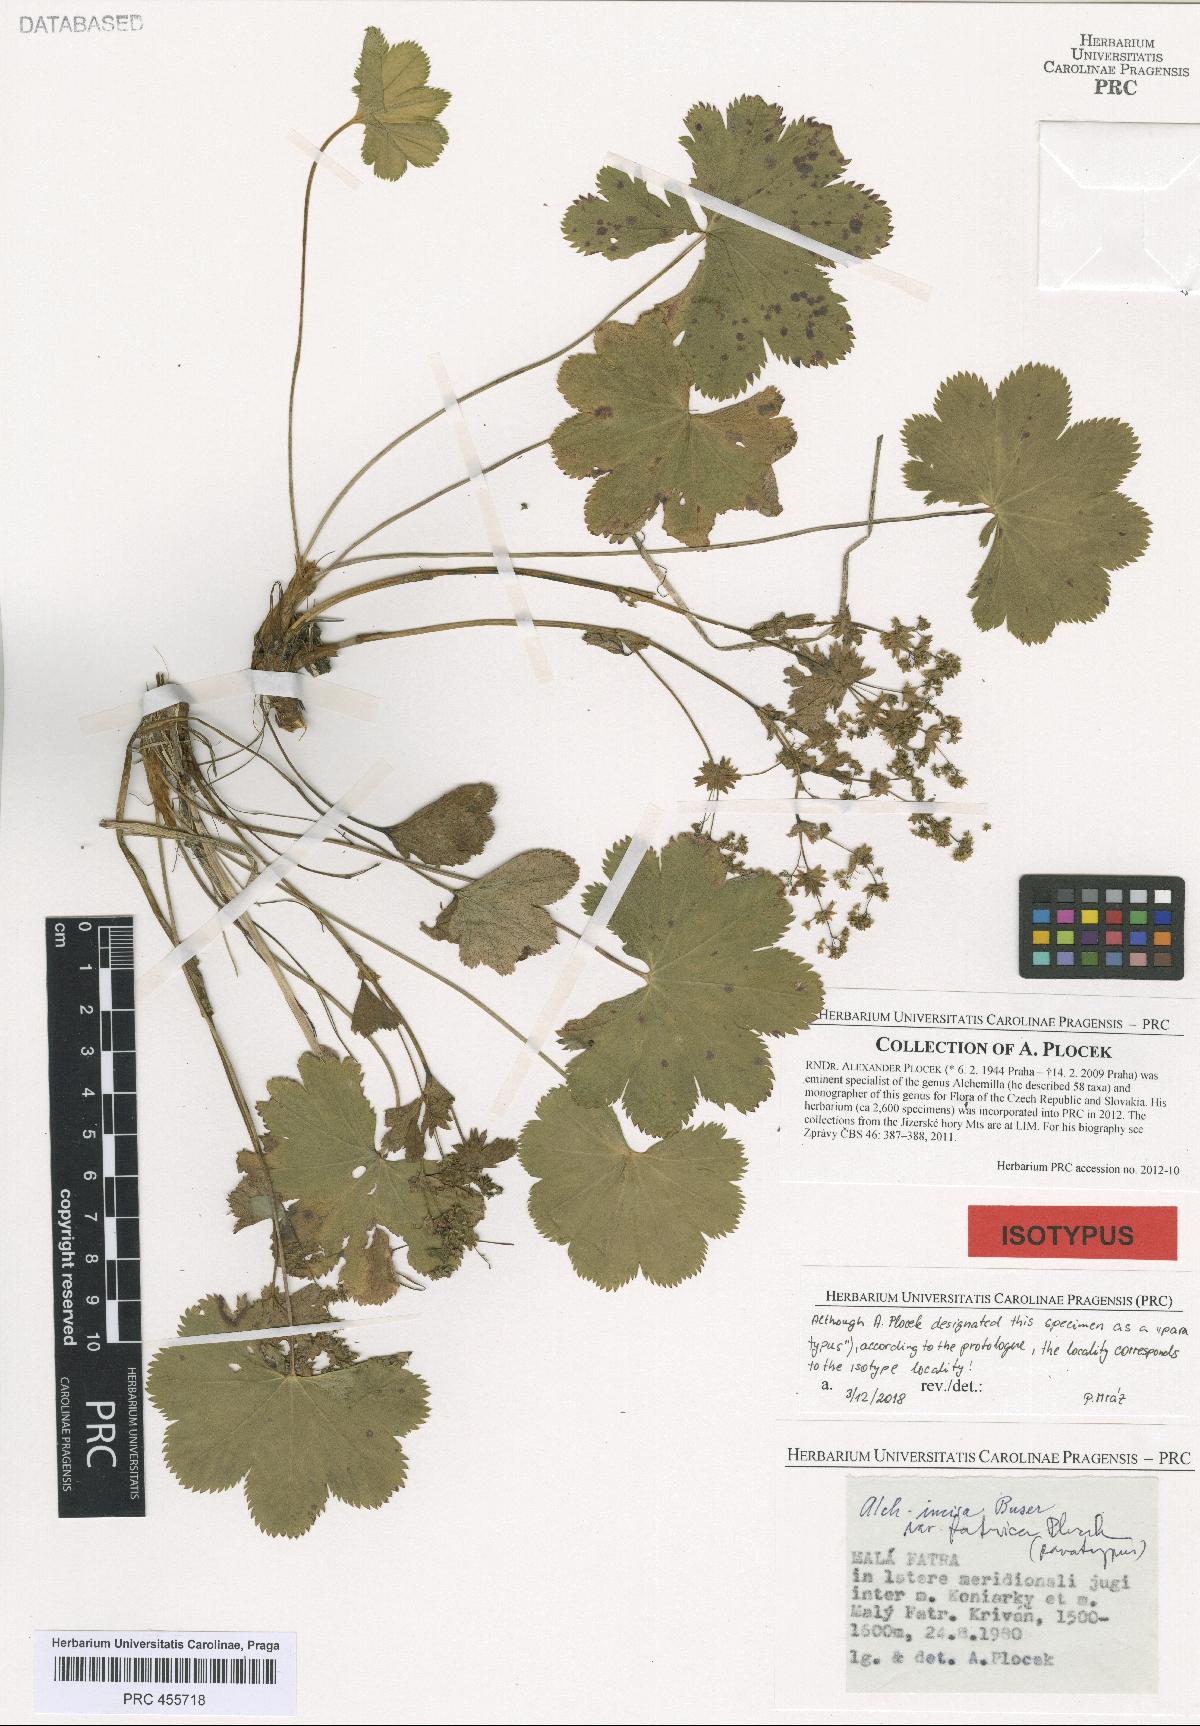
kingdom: Plantae
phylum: Tracheophyta
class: Magnoliopsida
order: Rosales
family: Rosaceae
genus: Alchemilla
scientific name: Alchemilla incisa
